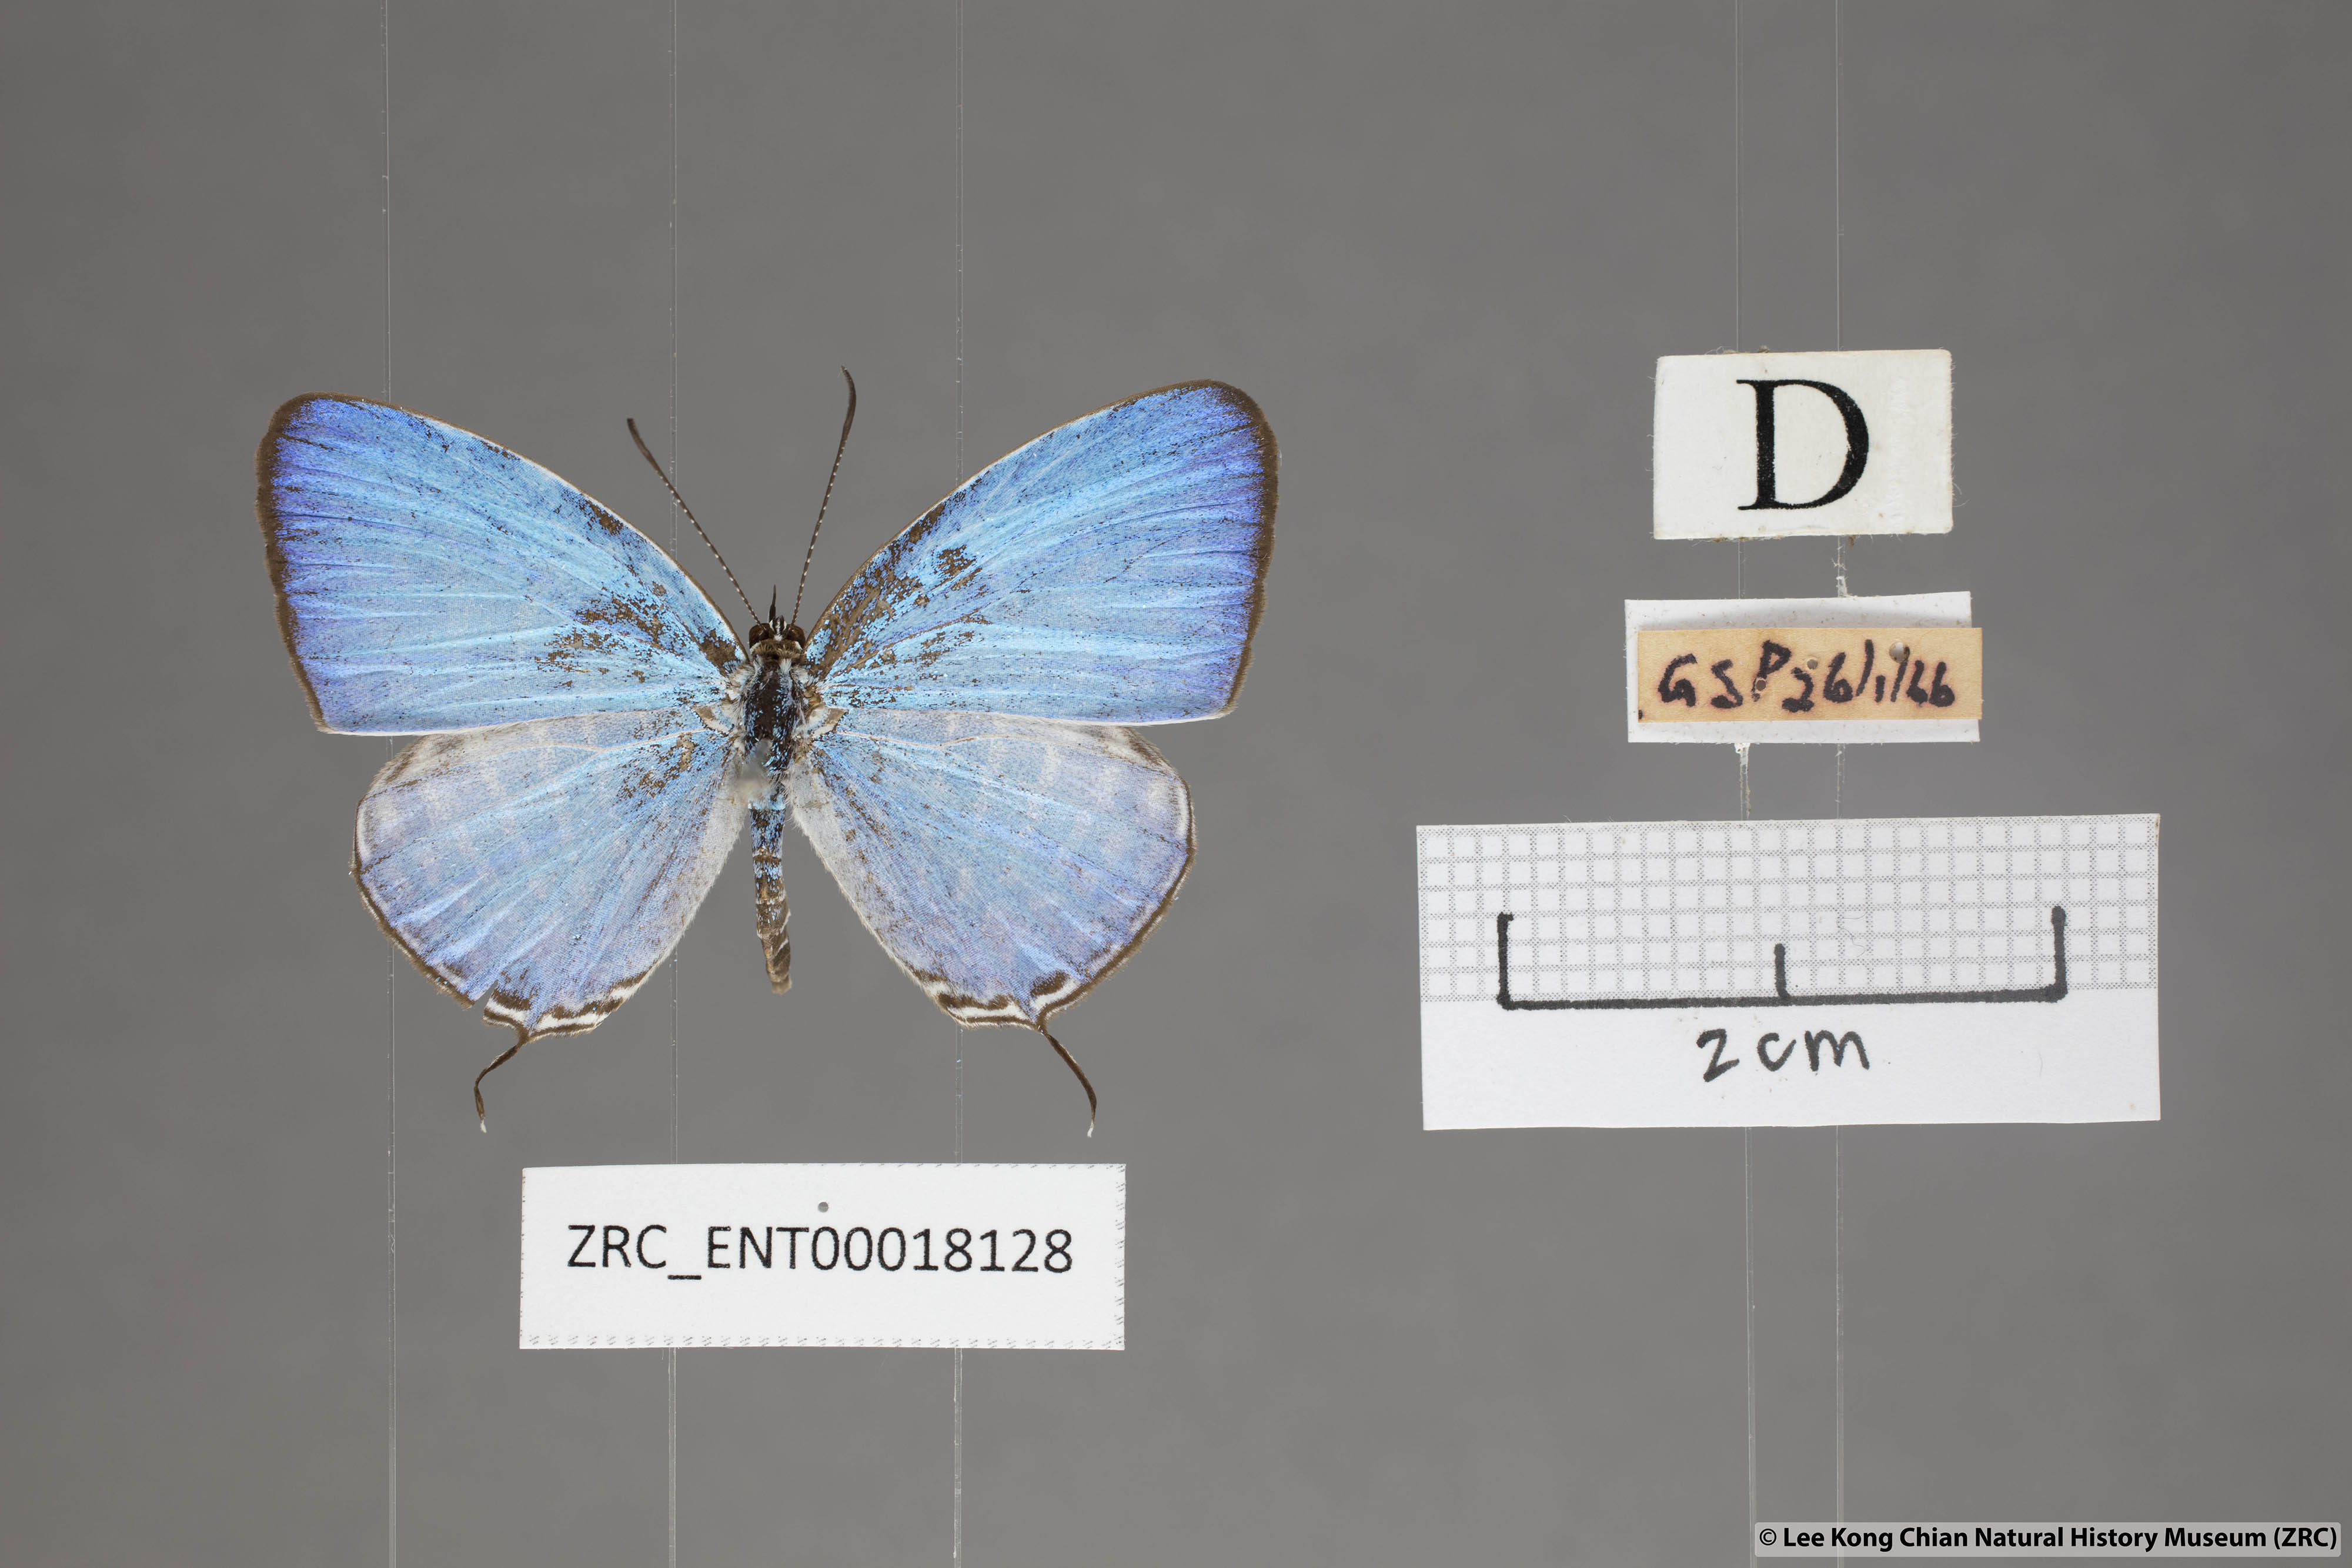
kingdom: Animalia
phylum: Arthropoda
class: Insecta
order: Lepidoptera
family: Lycaenidae
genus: Jamides
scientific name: Jamides malaccanus
